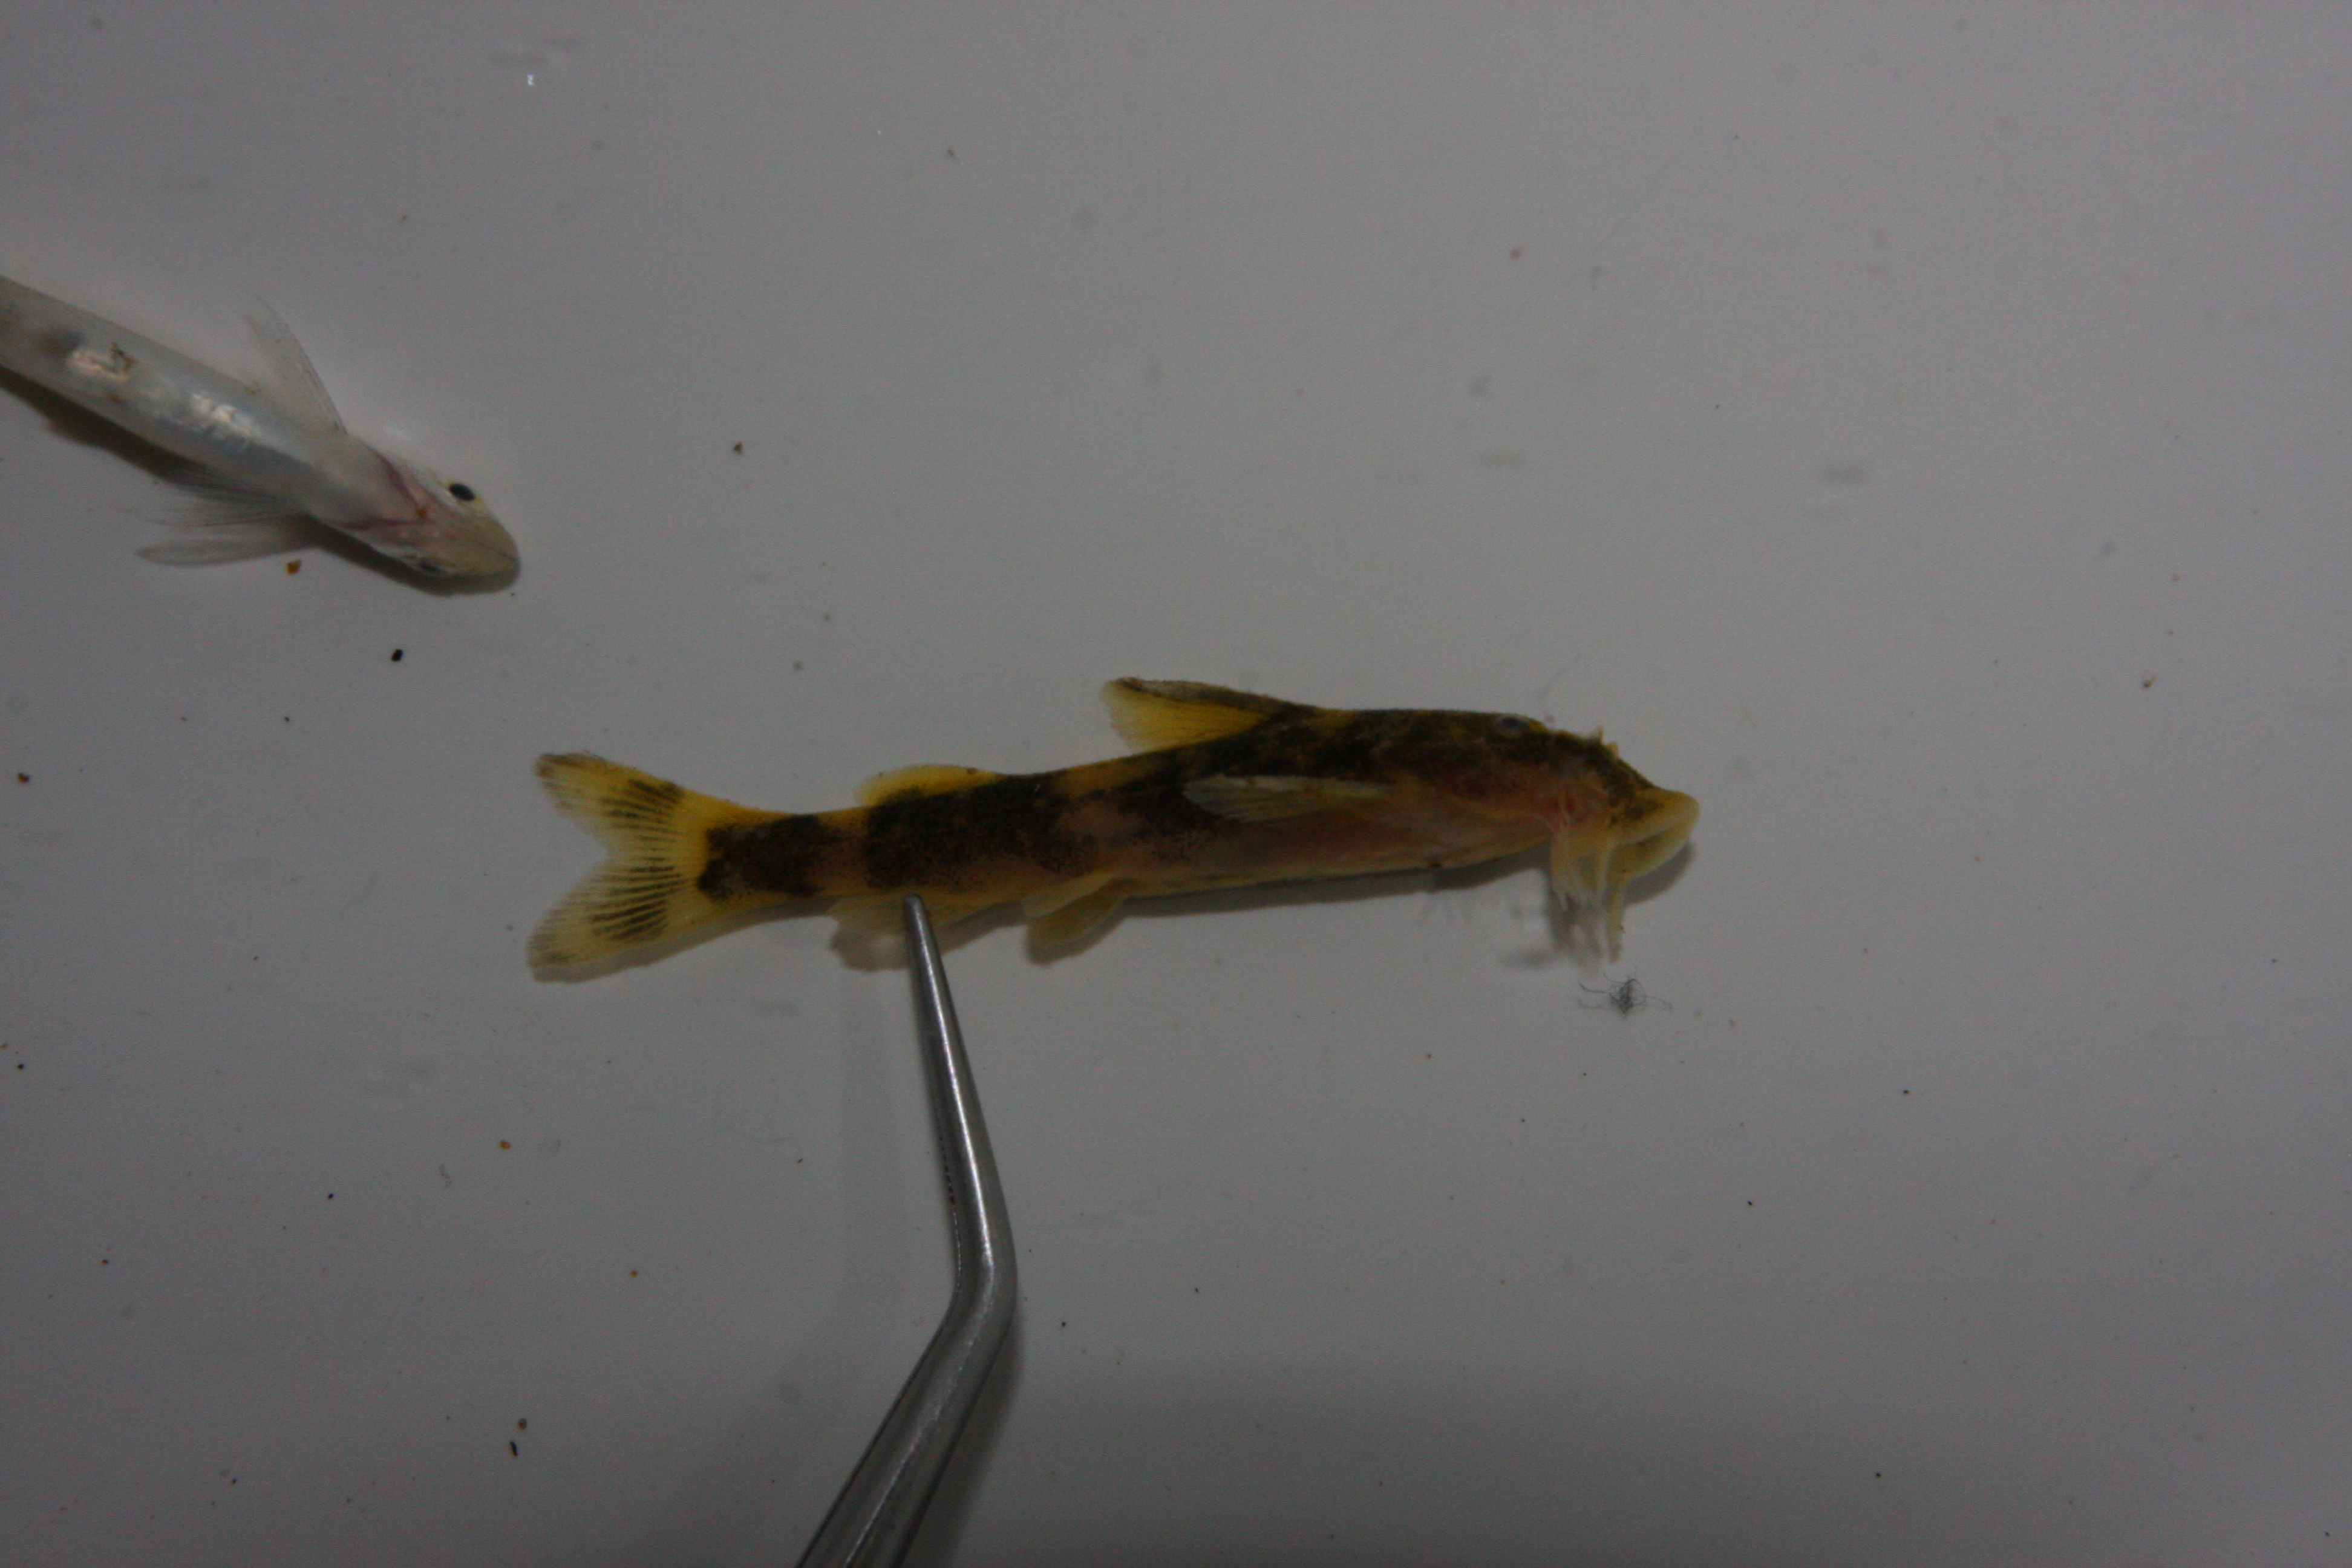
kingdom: Animalia
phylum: Chordata
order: Siluriformes
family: Mochokidae
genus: Chiloglanis
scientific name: Chiloglanis paratus
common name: Sawfin catlet
